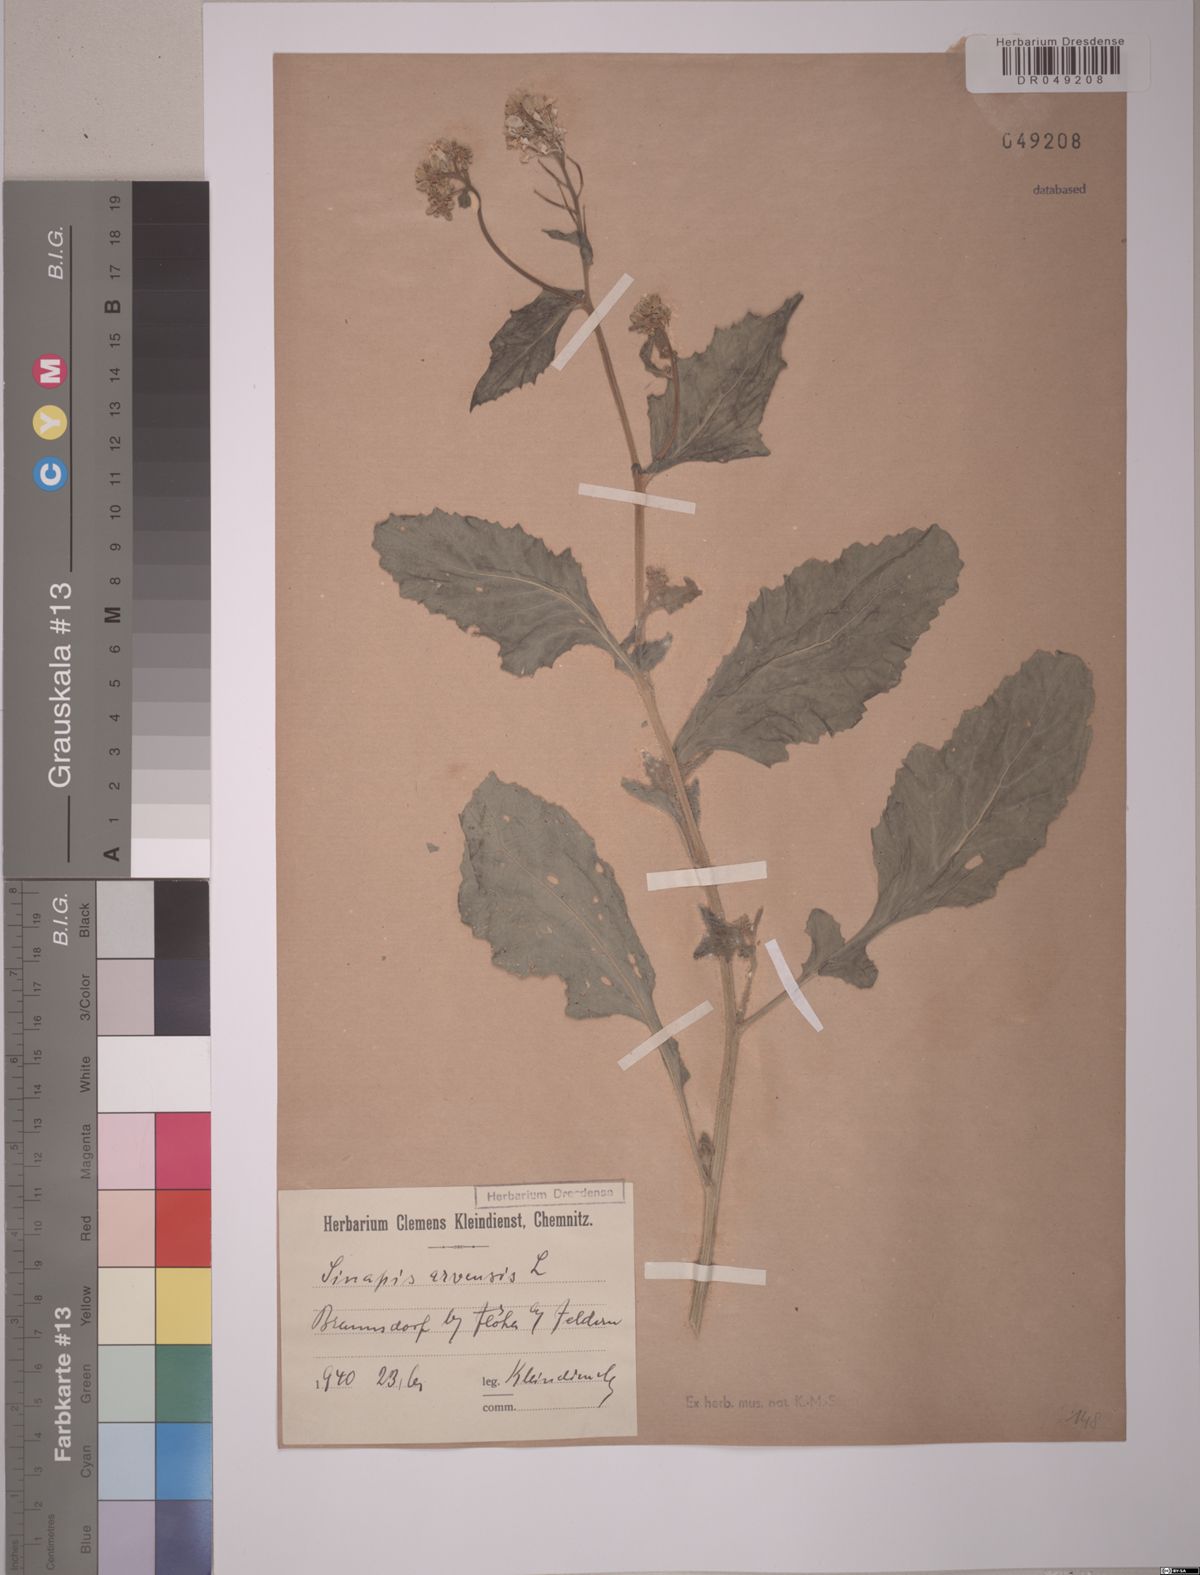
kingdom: Plantae
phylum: Tracheophyta
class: Magnoliopsida
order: Brassicales
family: Brassicaceae
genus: Sinapis
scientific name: Sinapis arvensis
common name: Charlock
